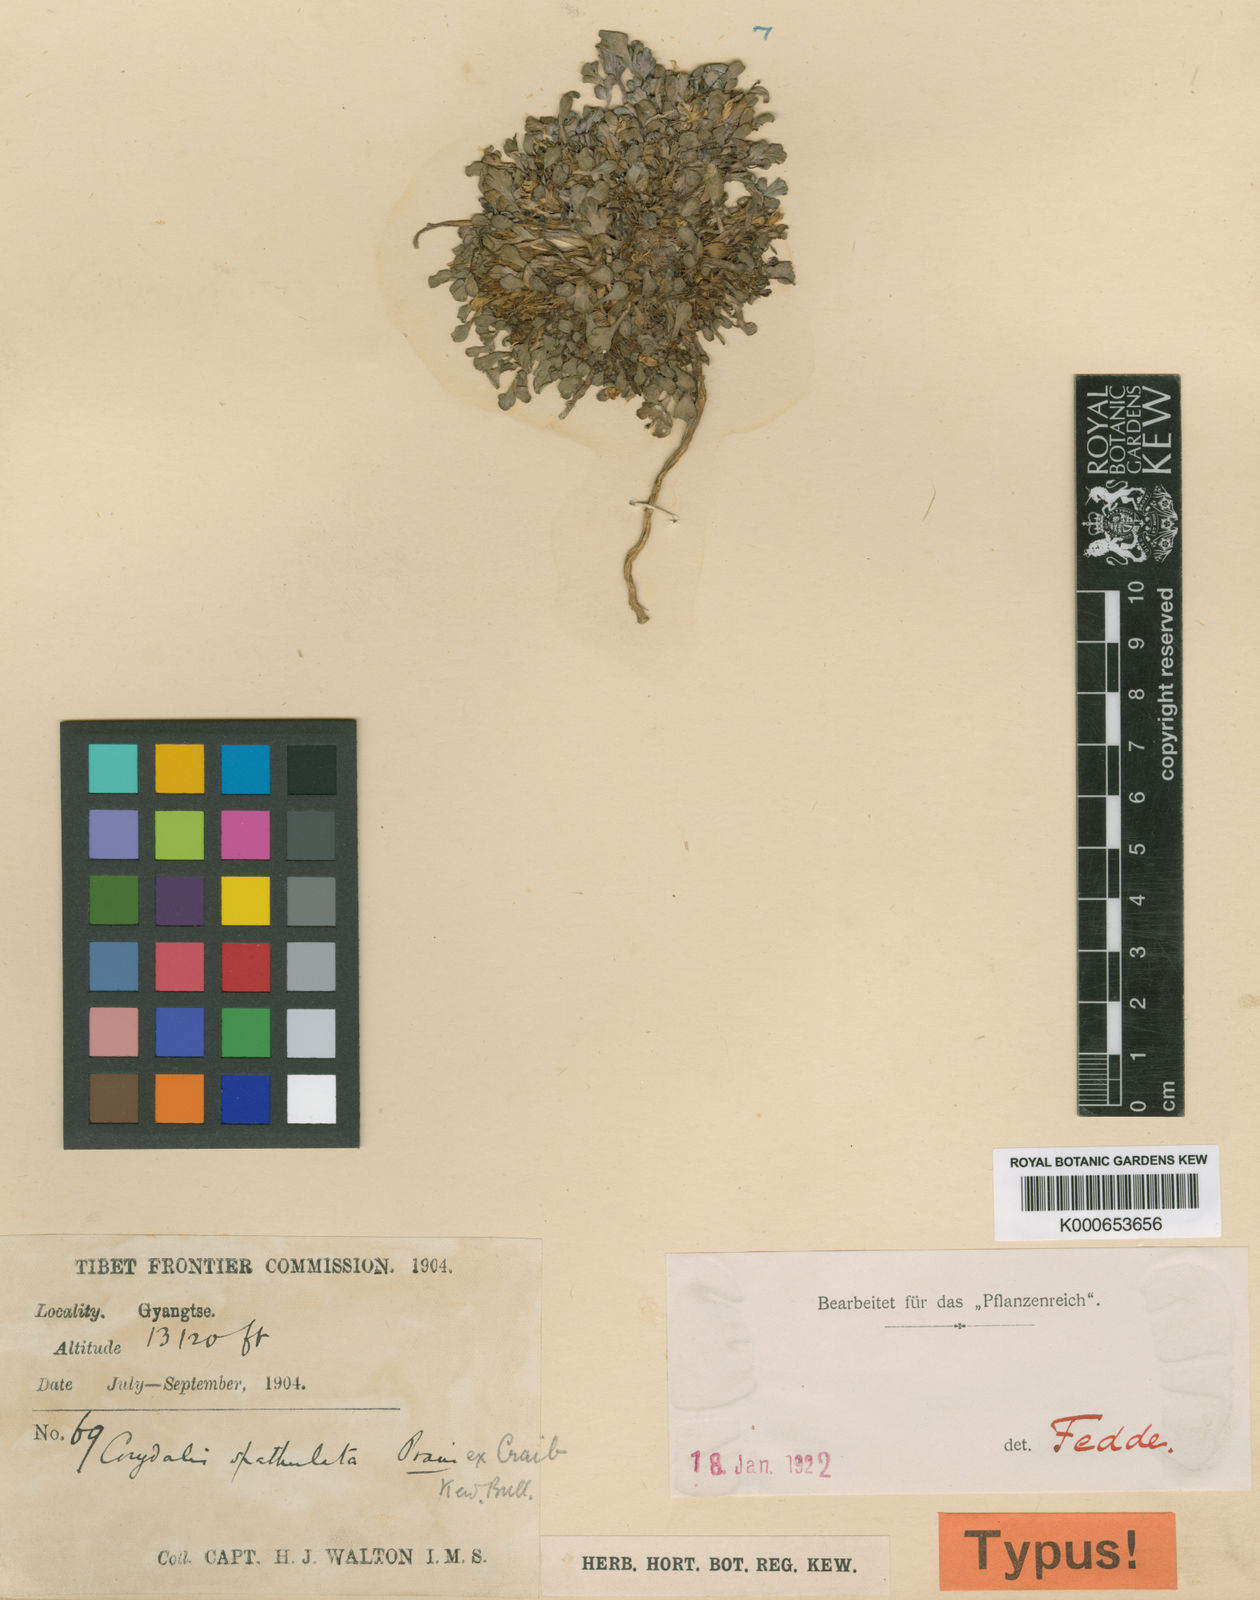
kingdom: Plantae
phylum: Tracheophyta
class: Magnoliopsida
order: Ranunculales
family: Papaveraceae
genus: Corydalis
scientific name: Corydalis spathulata
